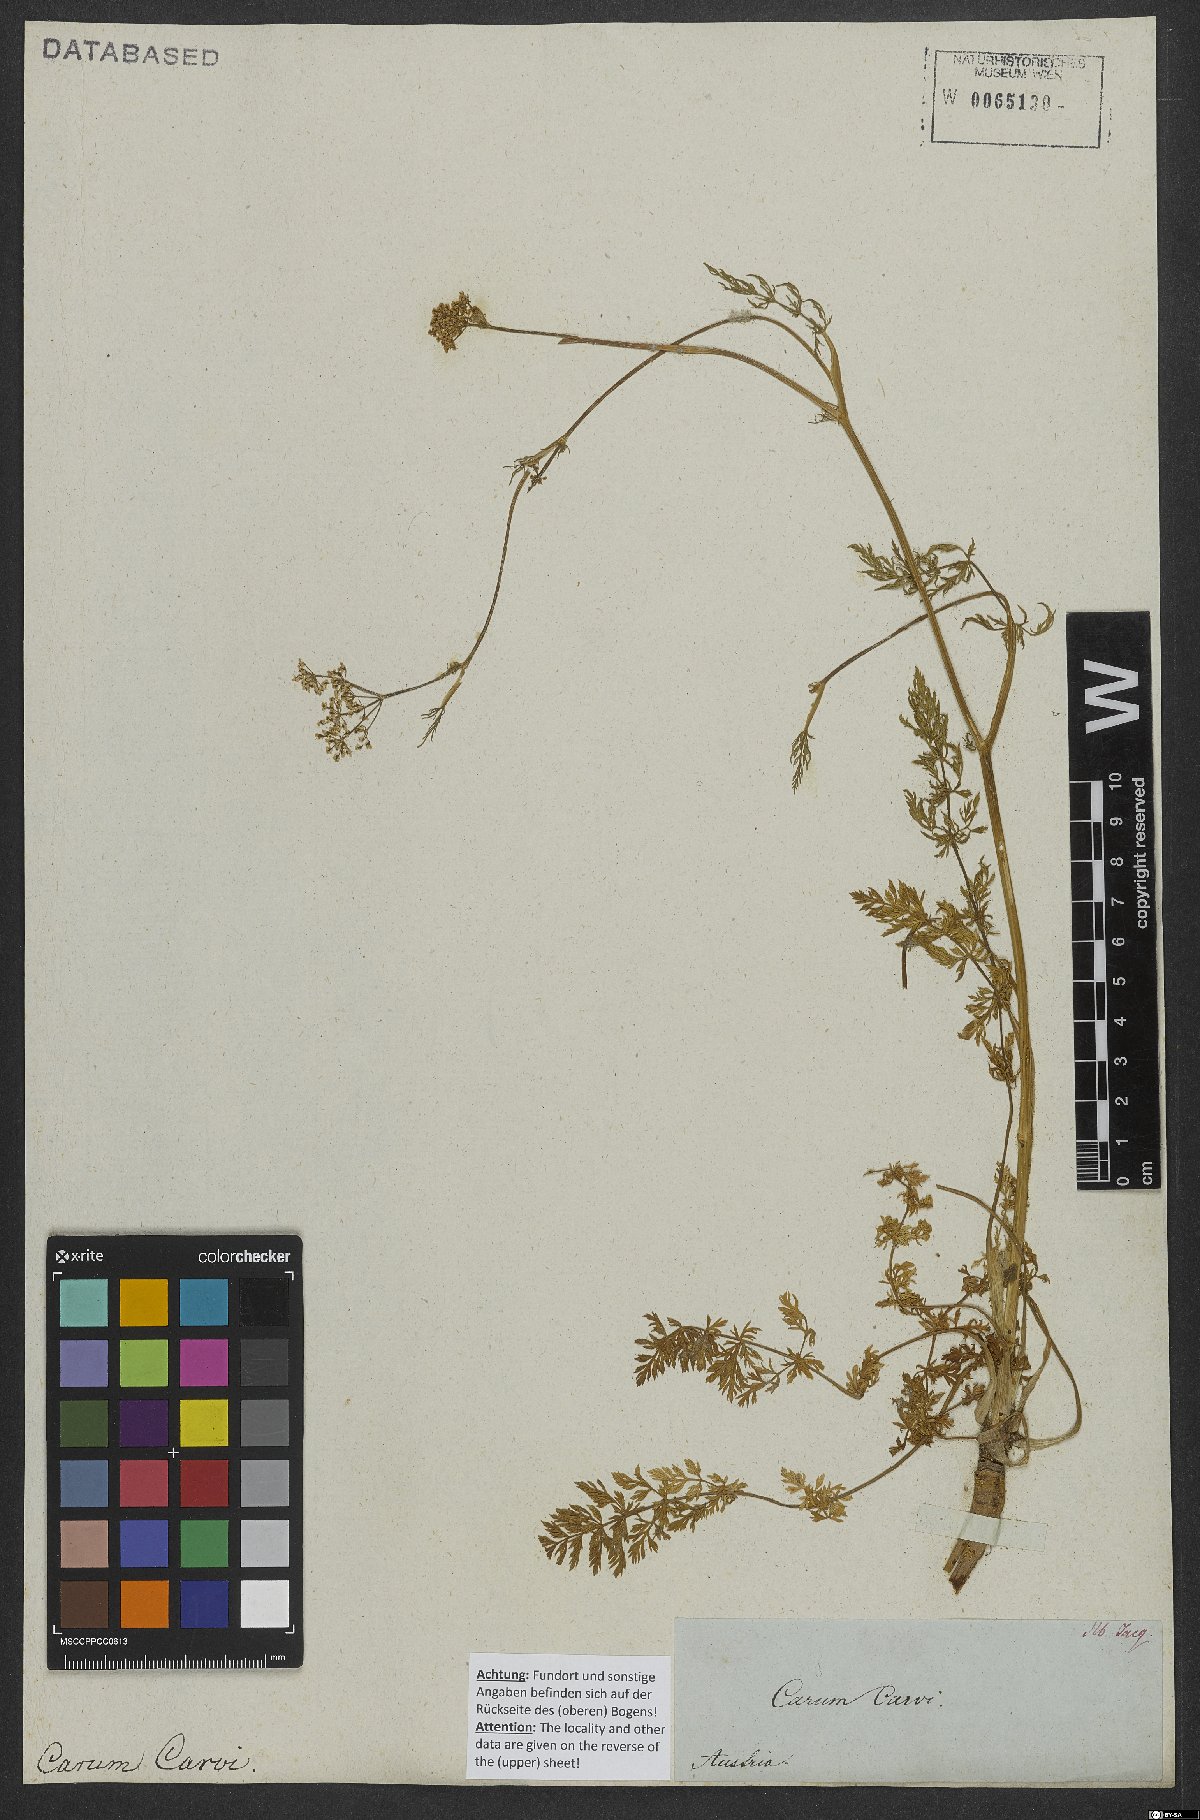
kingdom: Plantae
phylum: Tracheophyta
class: Magnoliopsida
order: Apiales
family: Apiaceae
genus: Carum
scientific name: Carum carvi
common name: Caraway
